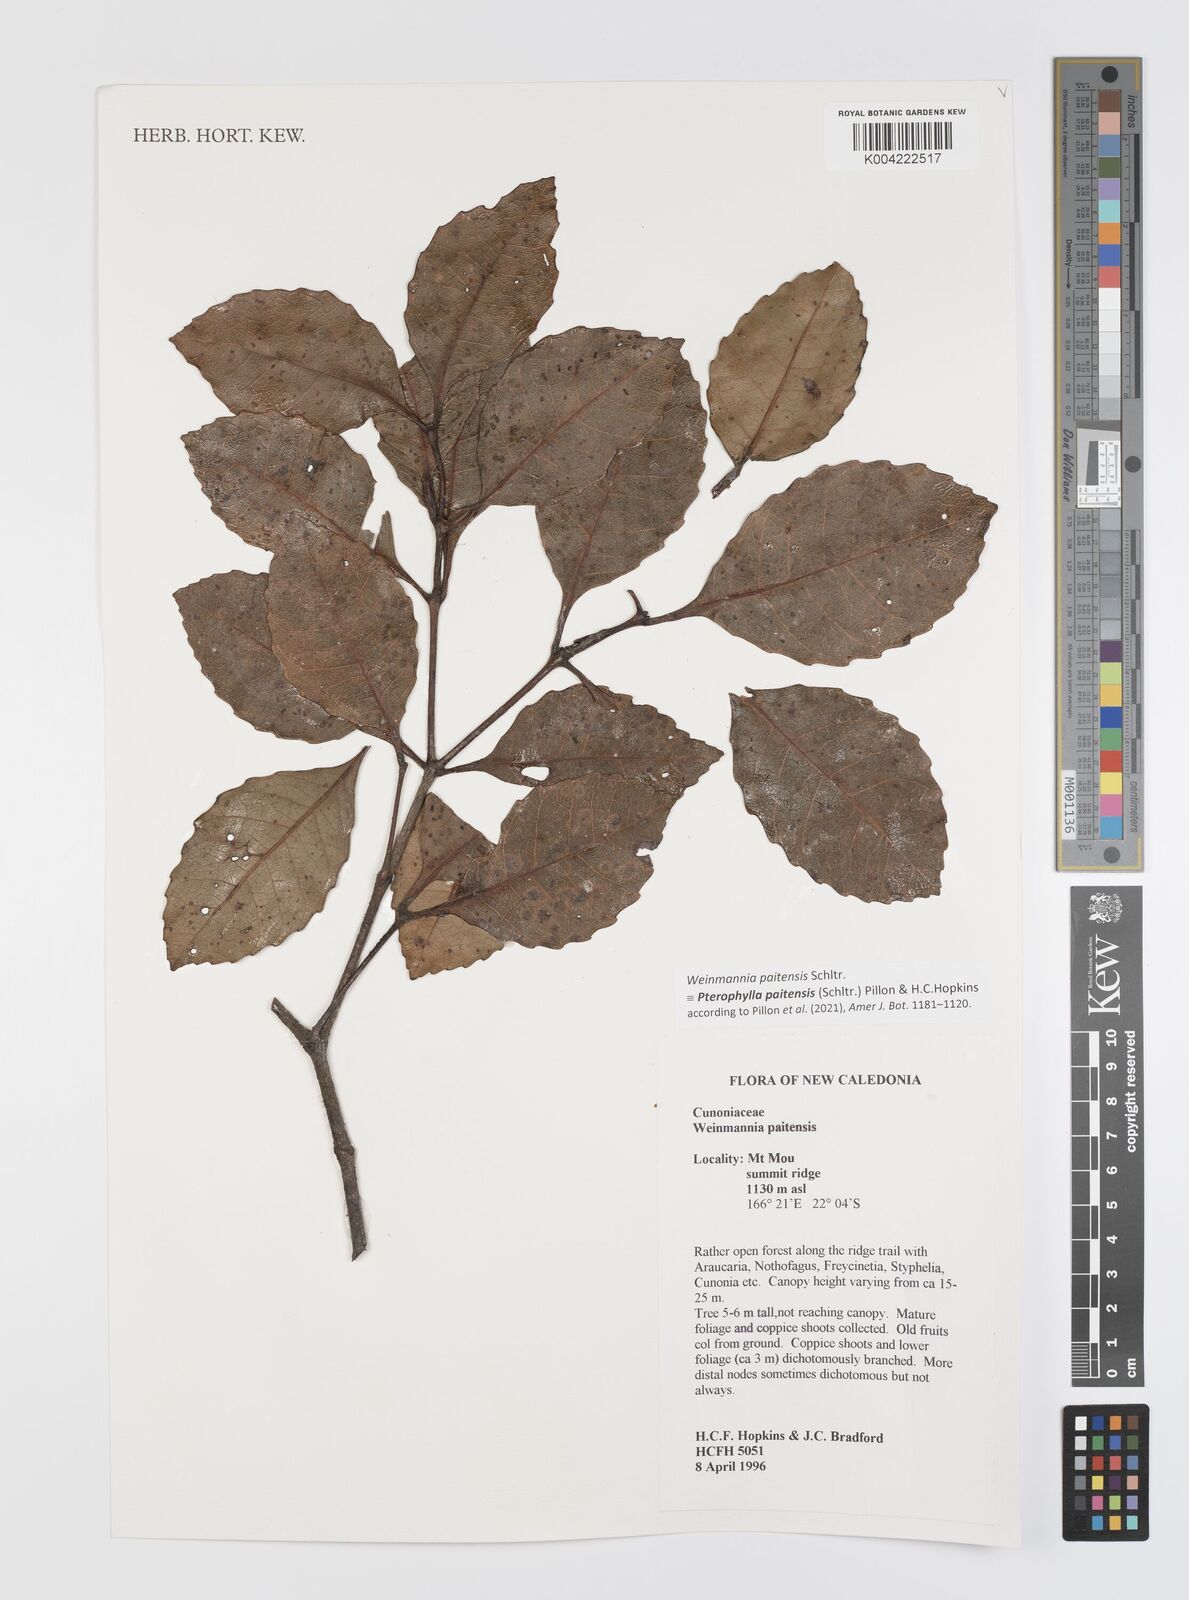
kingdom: Plantae
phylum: Tracheophyta
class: Magnoliopsida
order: Oxalidales
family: Cunoniaceae
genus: Pterophylla
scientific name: Pterophylla paitensis
